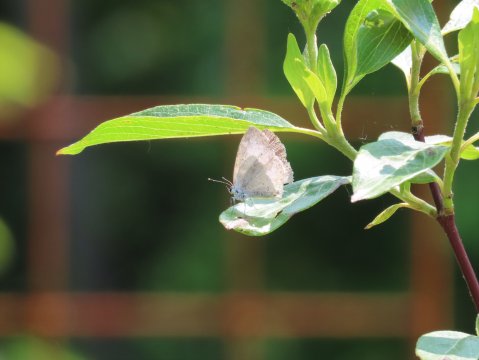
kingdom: Animalia
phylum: Arthropoda
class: Insecta
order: Lepidoptera
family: Lycaenidae
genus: Celastrina
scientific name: Celastrina
